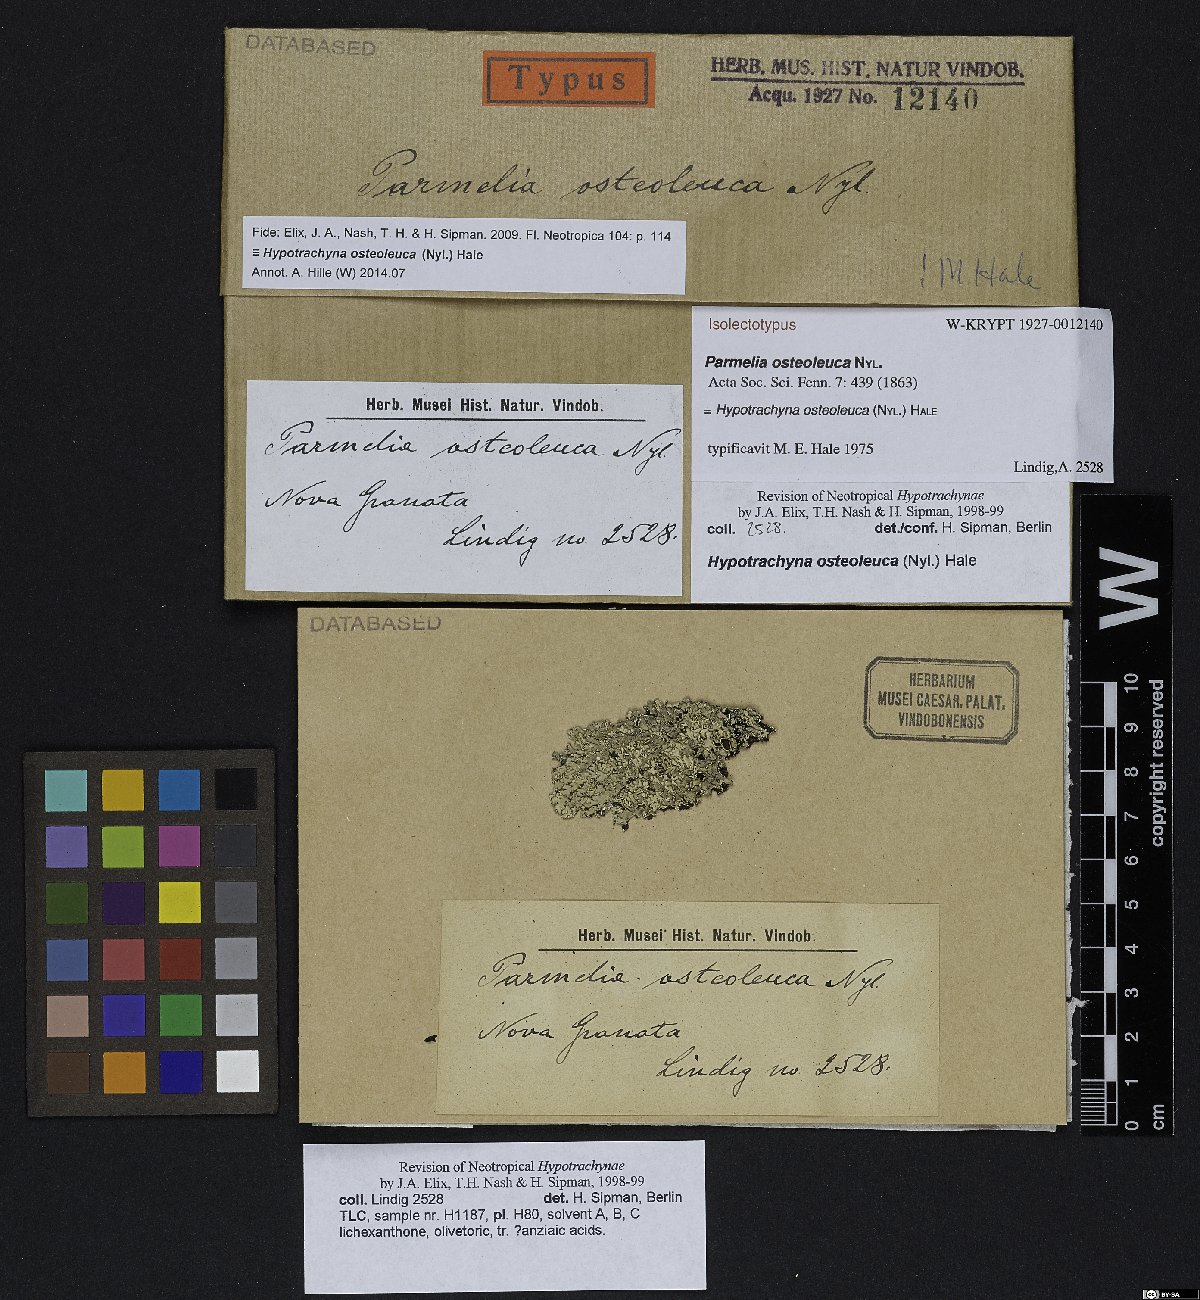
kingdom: Fungi
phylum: Ascomycota
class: Lecanoromycetes
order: Lecanorales
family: Parmeliaceae
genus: Parmelia
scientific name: Parmelia
